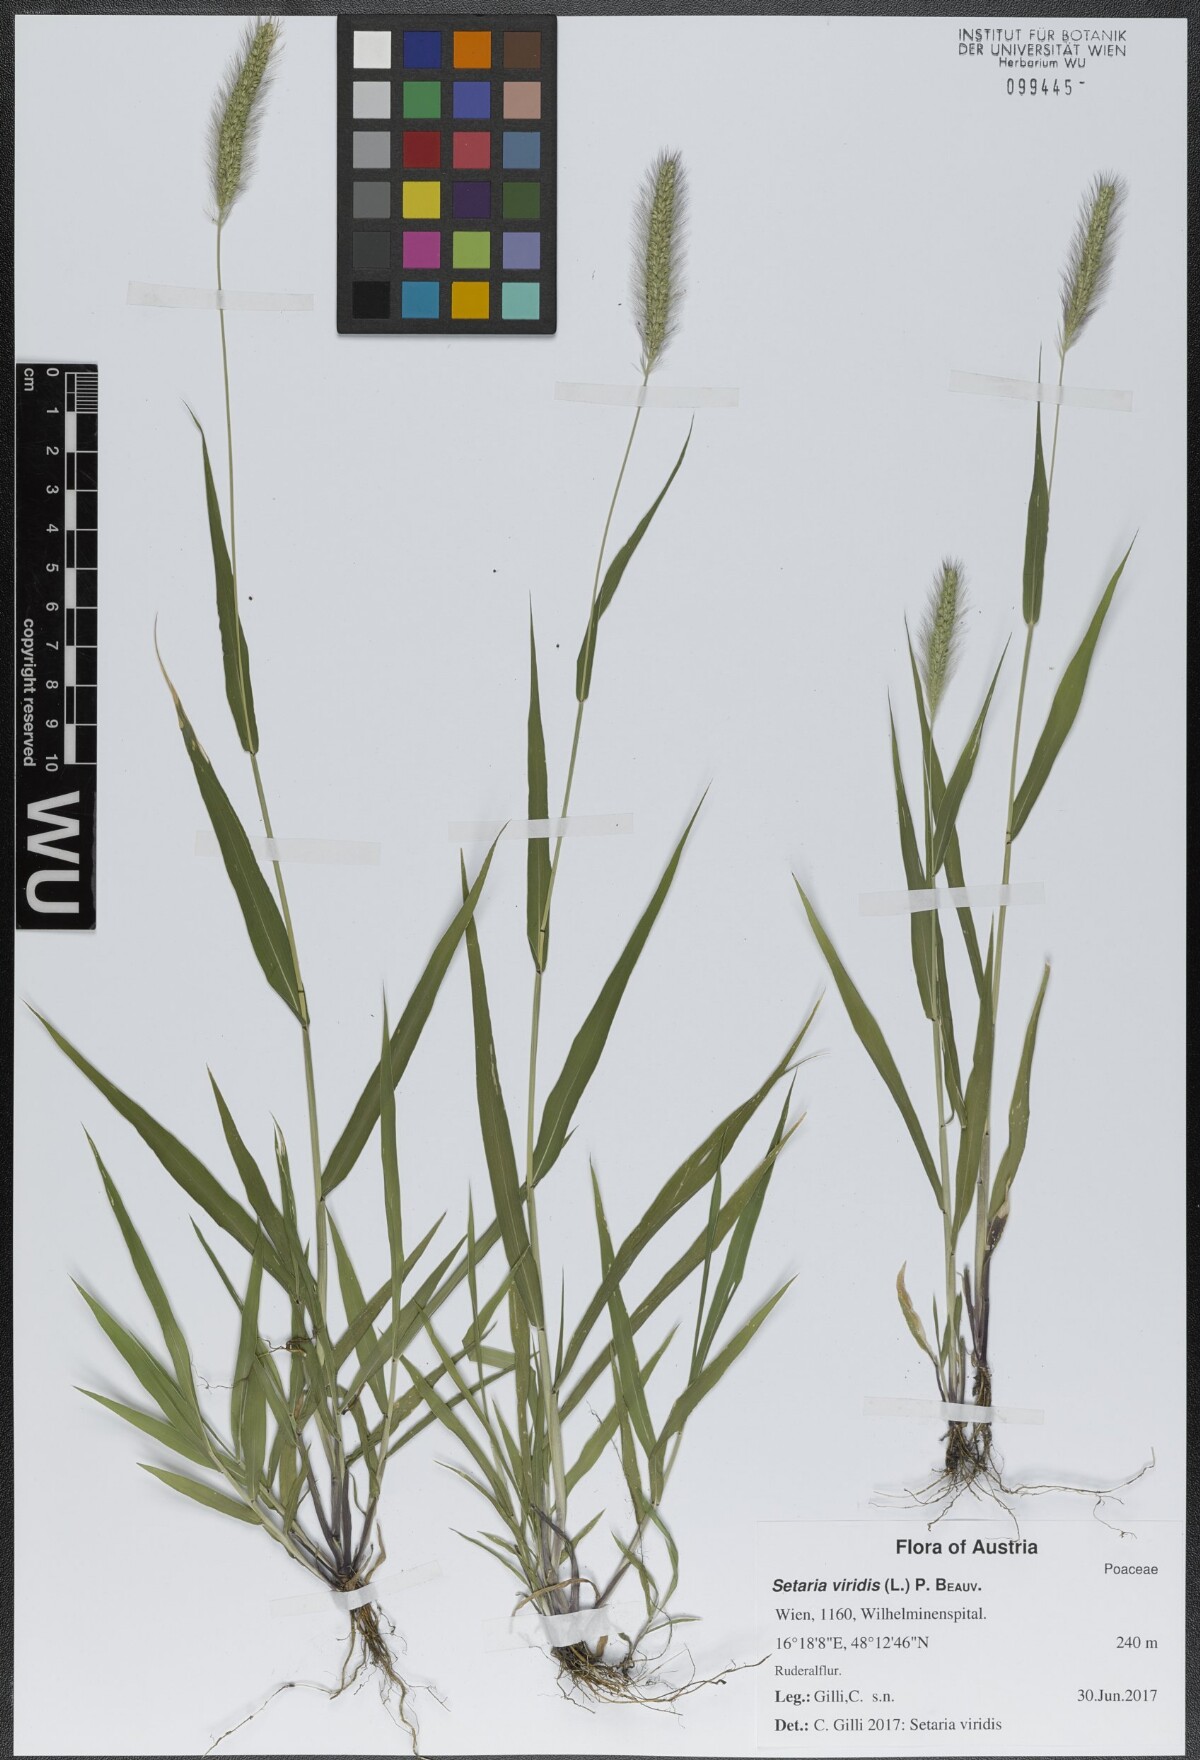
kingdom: Plantae
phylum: Tracheophyta
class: Liliopsida
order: Poales
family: Poaceae
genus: Setaria
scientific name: Setaria viridis
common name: Green bristlegrass
